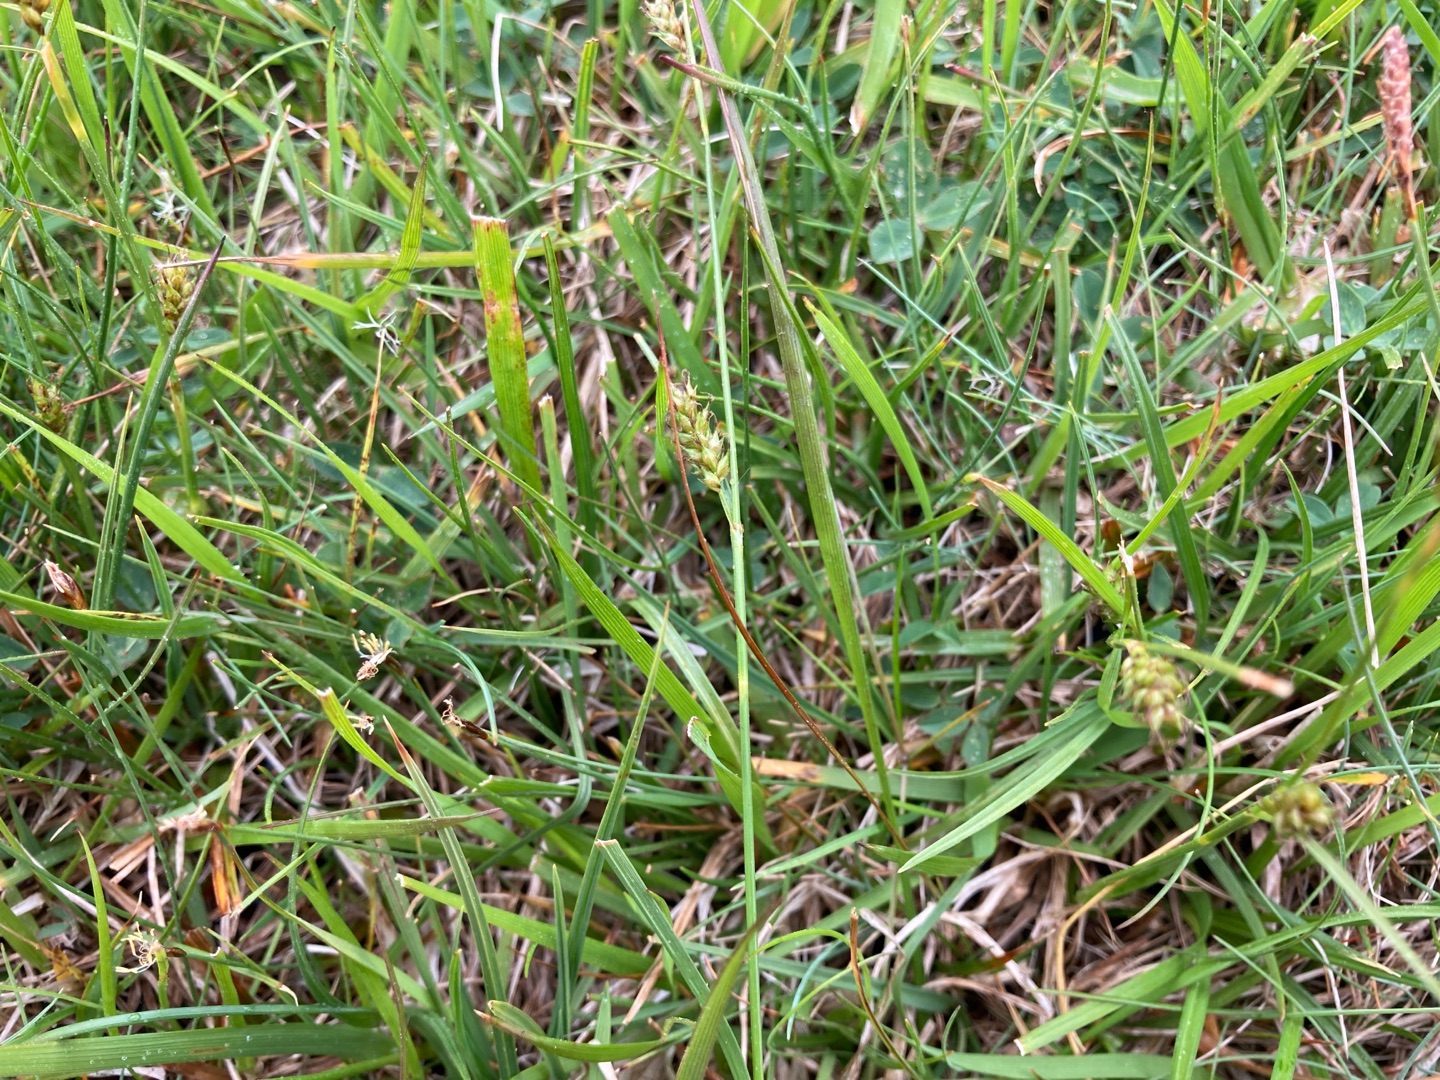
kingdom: Plantae
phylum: Tracheophyta
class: Liliopsida
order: Poales
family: Cyperaceae
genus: Carex
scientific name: Carex distans
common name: Fjernakset star
